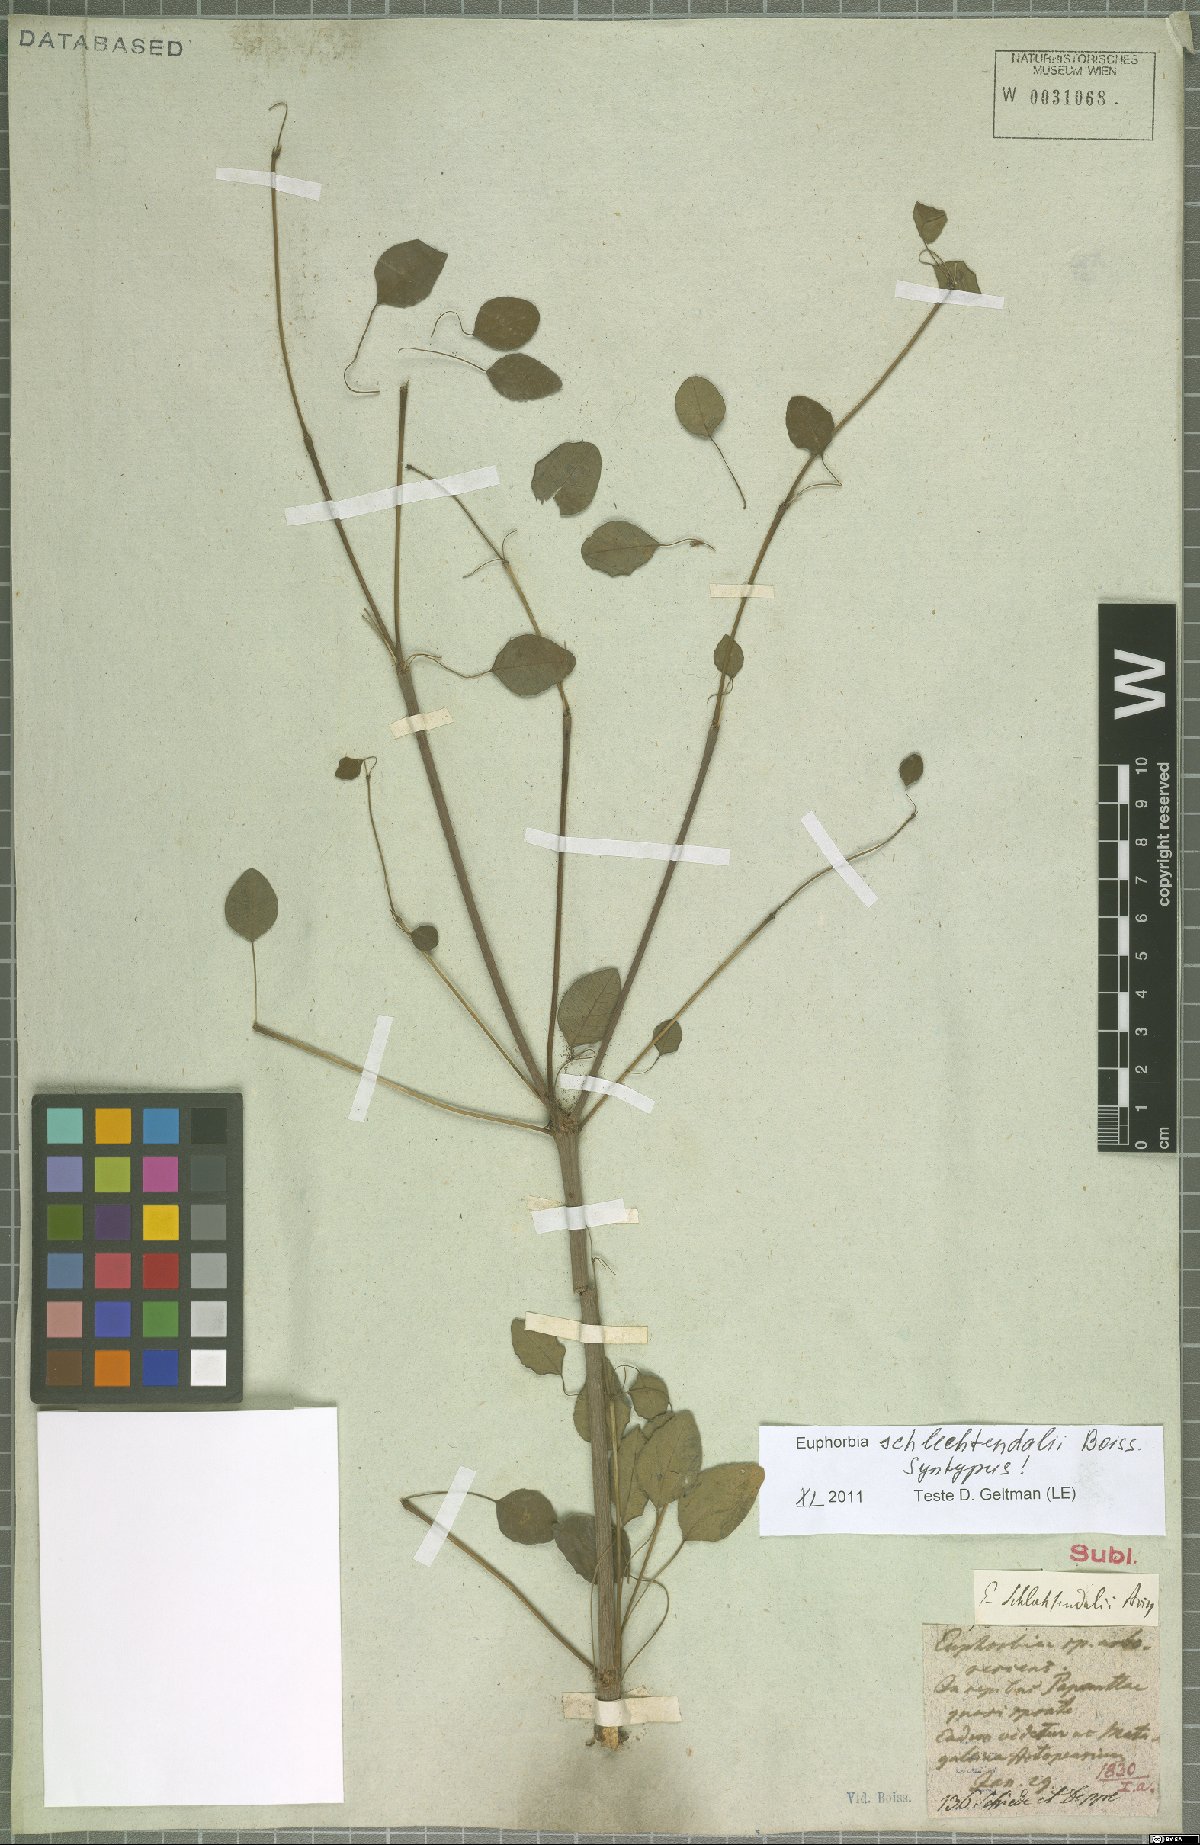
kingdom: Plantae
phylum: Tracheophyta
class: Magnoliopsida
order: Malpighiales
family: Euphorbiaceae
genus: Euphorbia
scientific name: Euphorbia schlechtendalii
